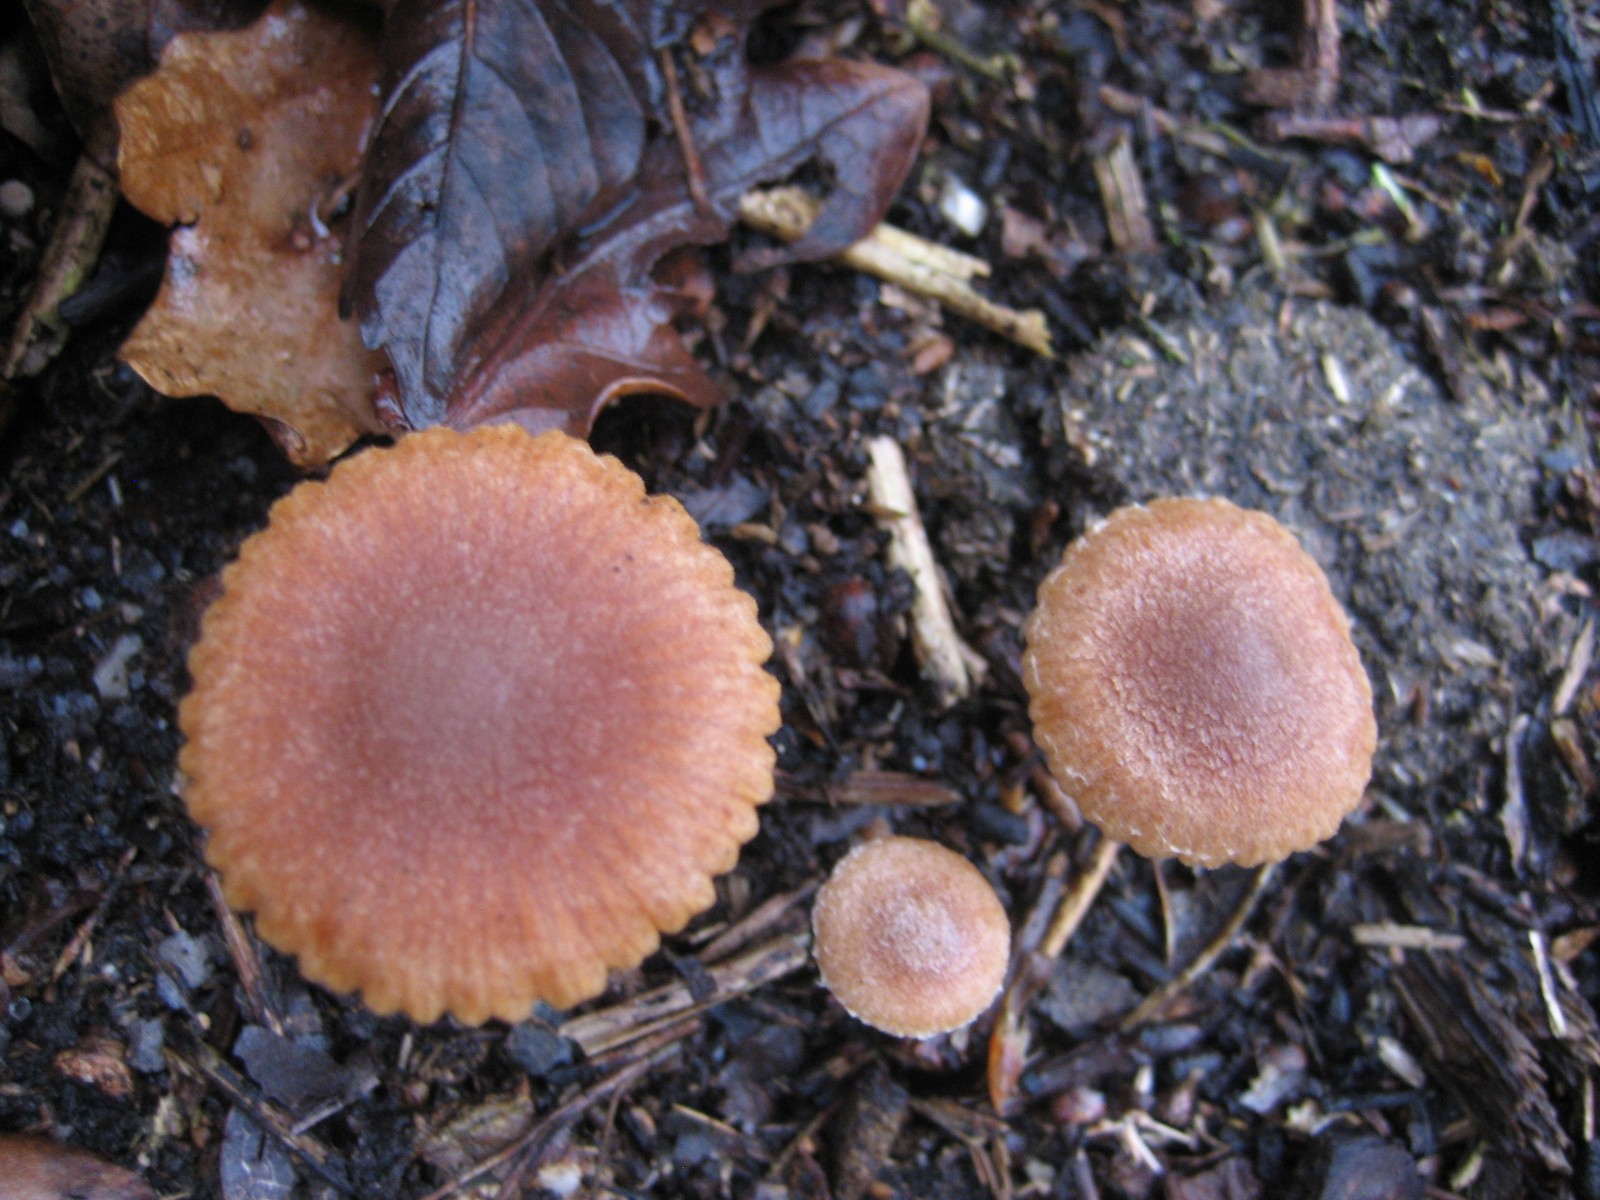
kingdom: Fungi
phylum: Basidiomycota
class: Agaricomycetes
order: Agaricales
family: Tubariaceae
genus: Tubaria
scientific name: Tubaria
